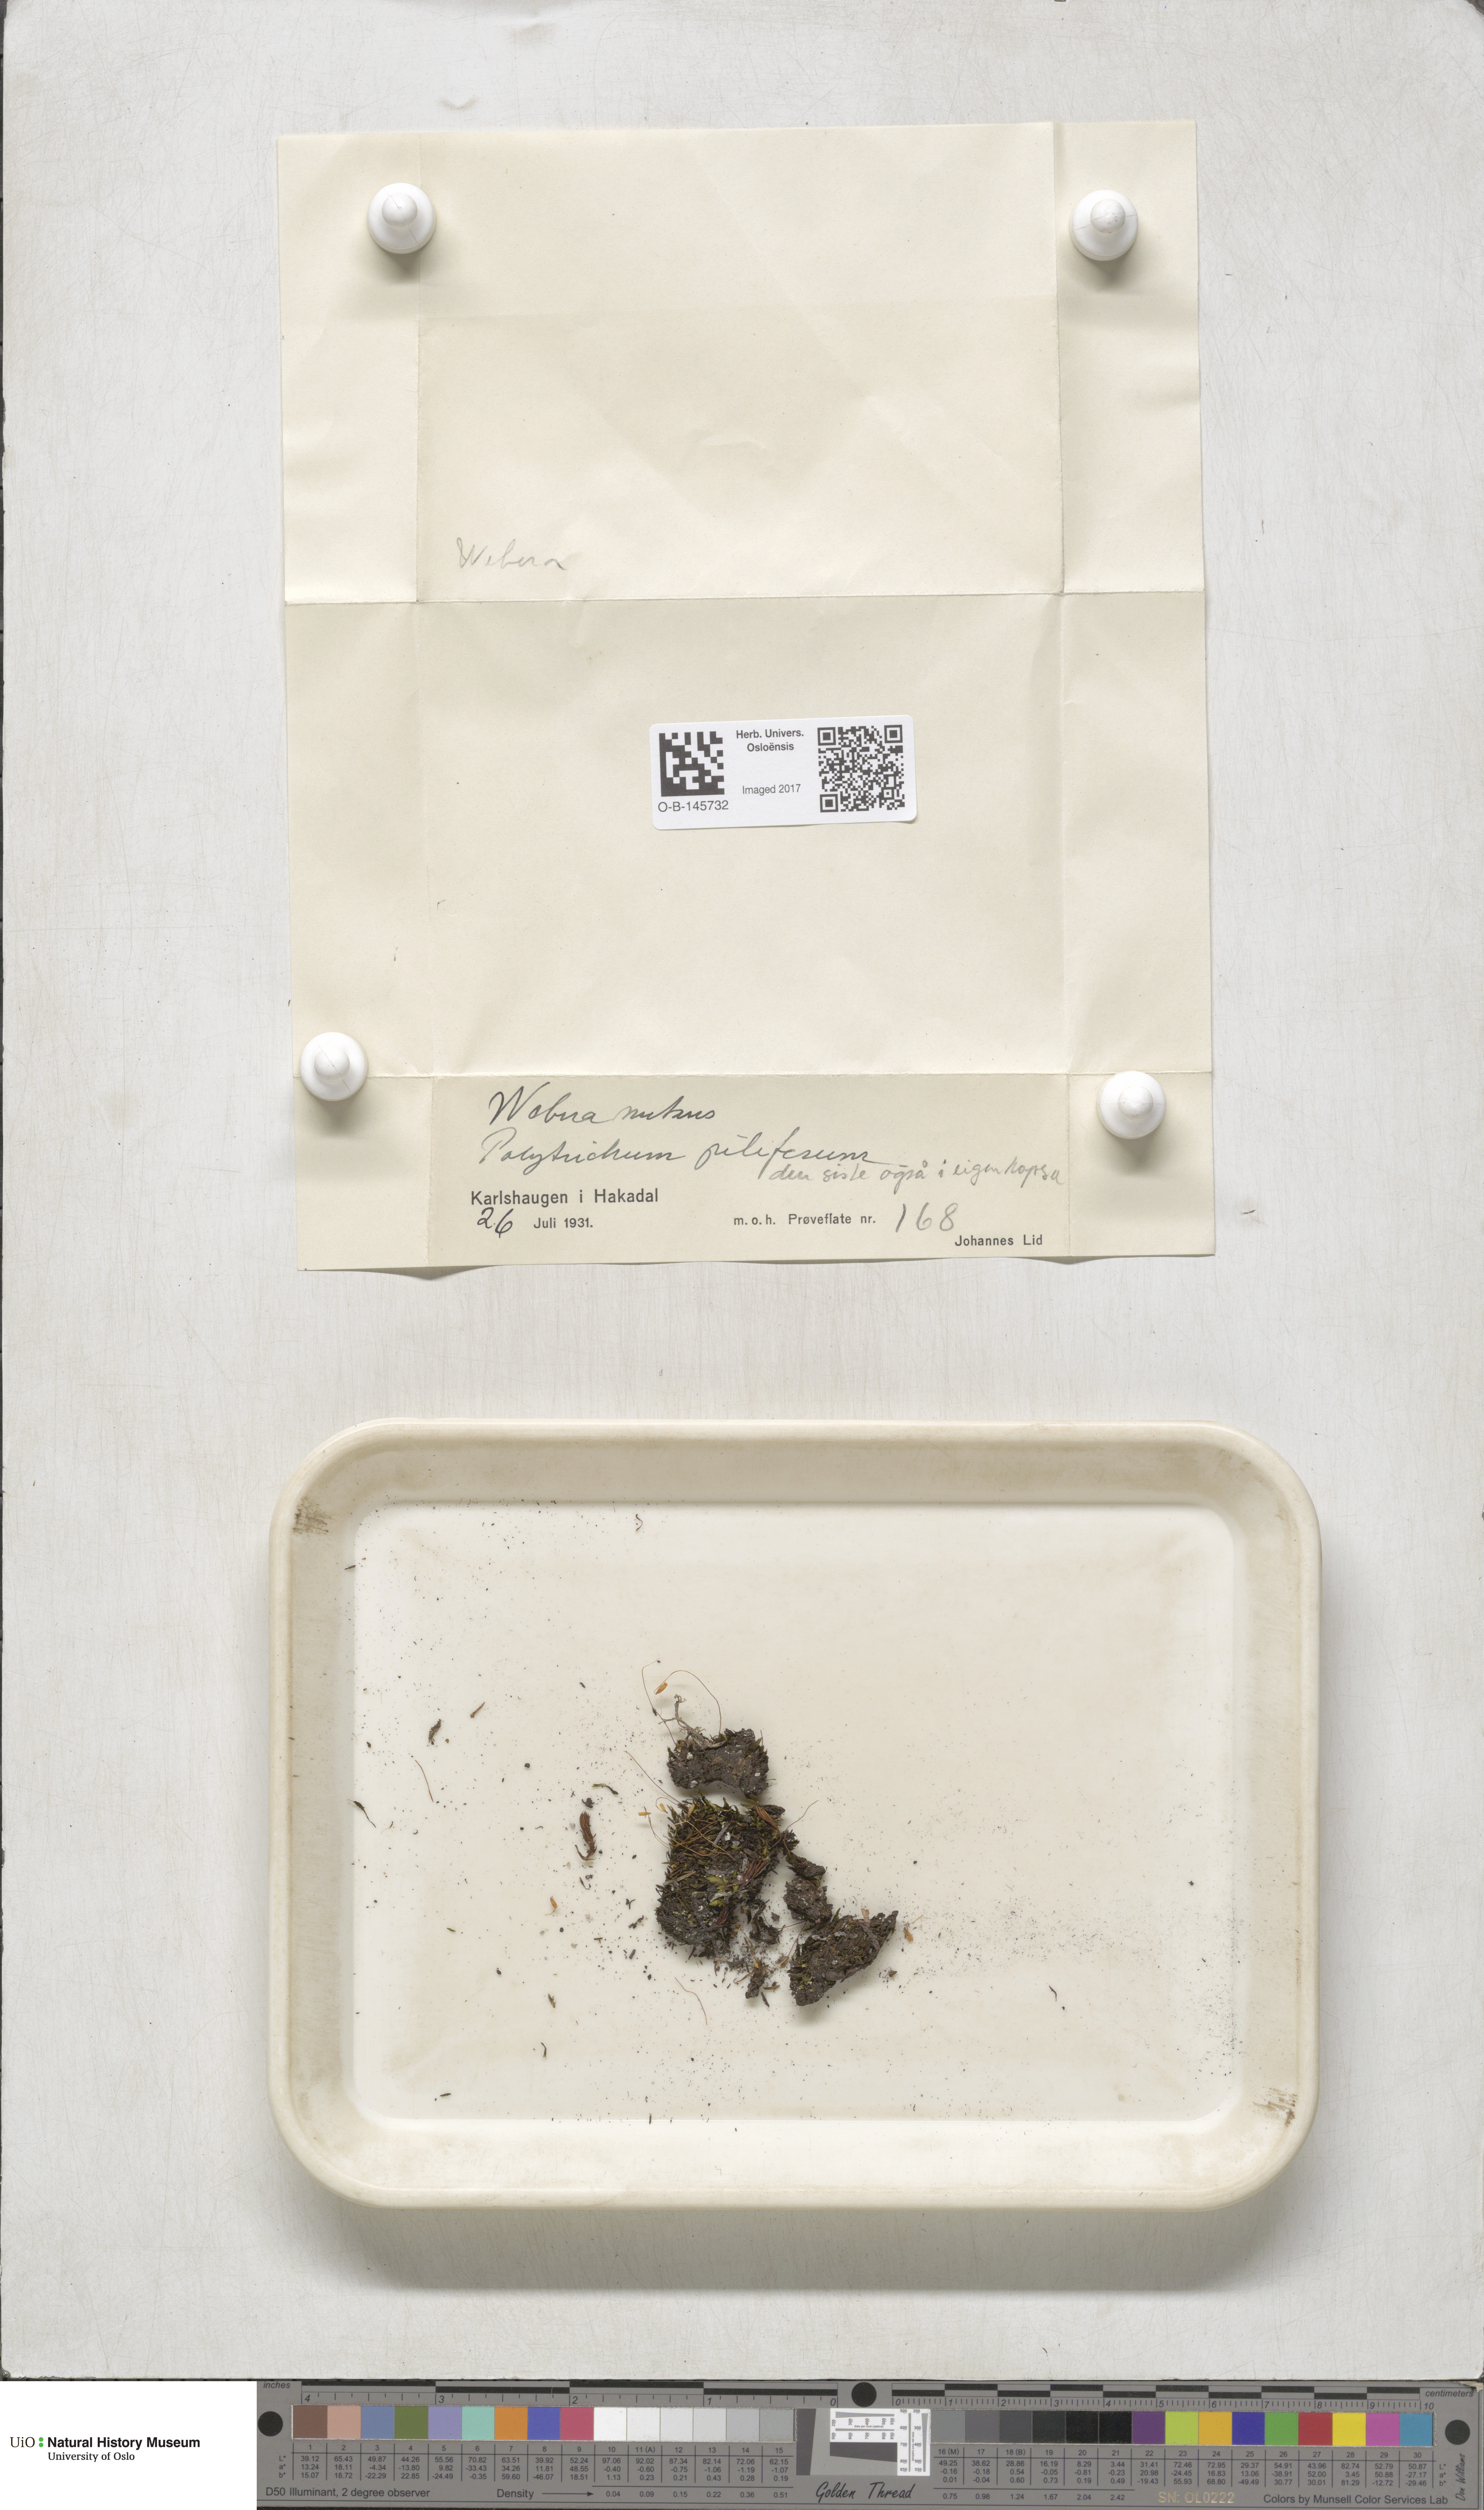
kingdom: Plantae
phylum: Bryophyta
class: Bryopsida
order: Bryales
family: Mniaceae
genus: Pohlia
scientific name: Pohlia nutans
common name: Nodding thread-moss
